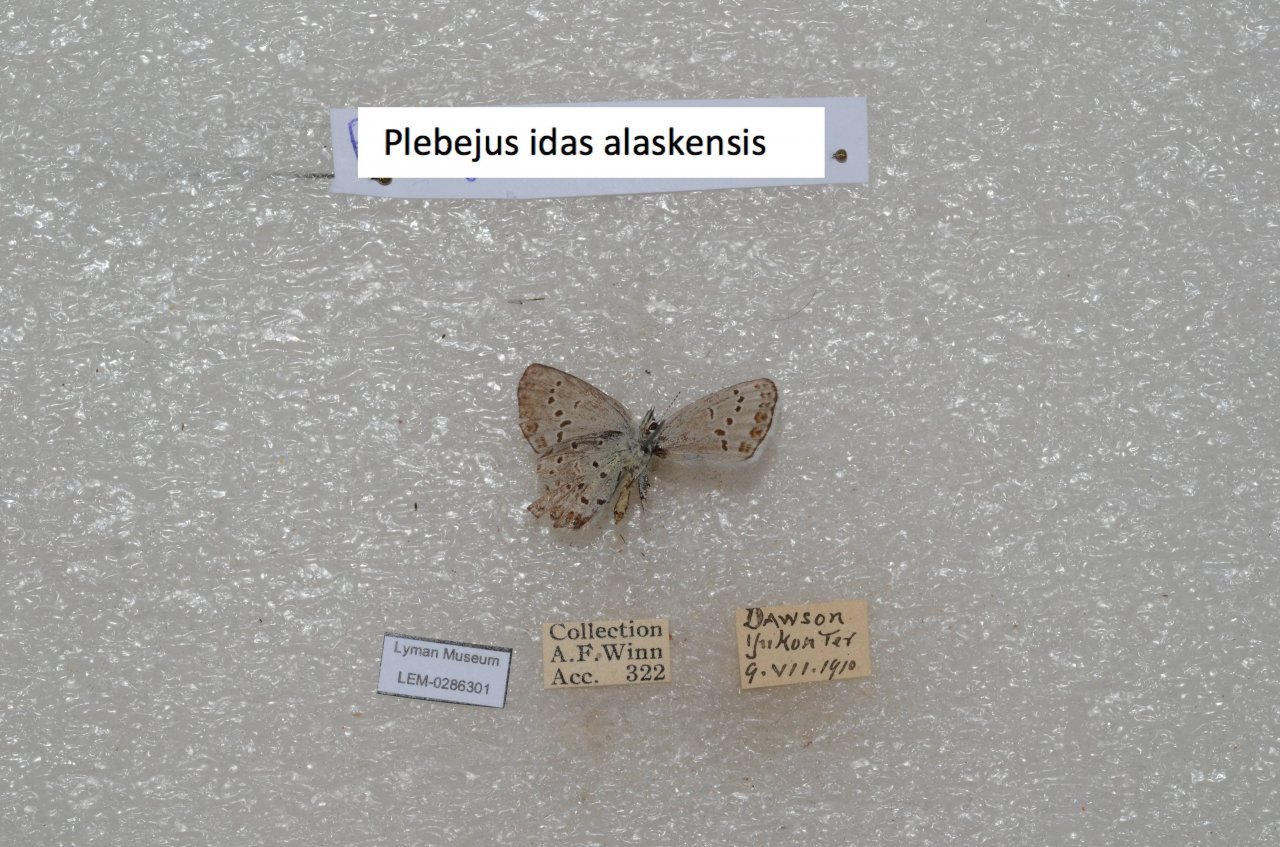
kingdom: Animalia
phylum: Arthropoda
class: Insecta
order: Lepidoptera
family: Lycaenidae
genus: Lycaeides
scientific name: Lycaeides idas
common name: Northern Blue
